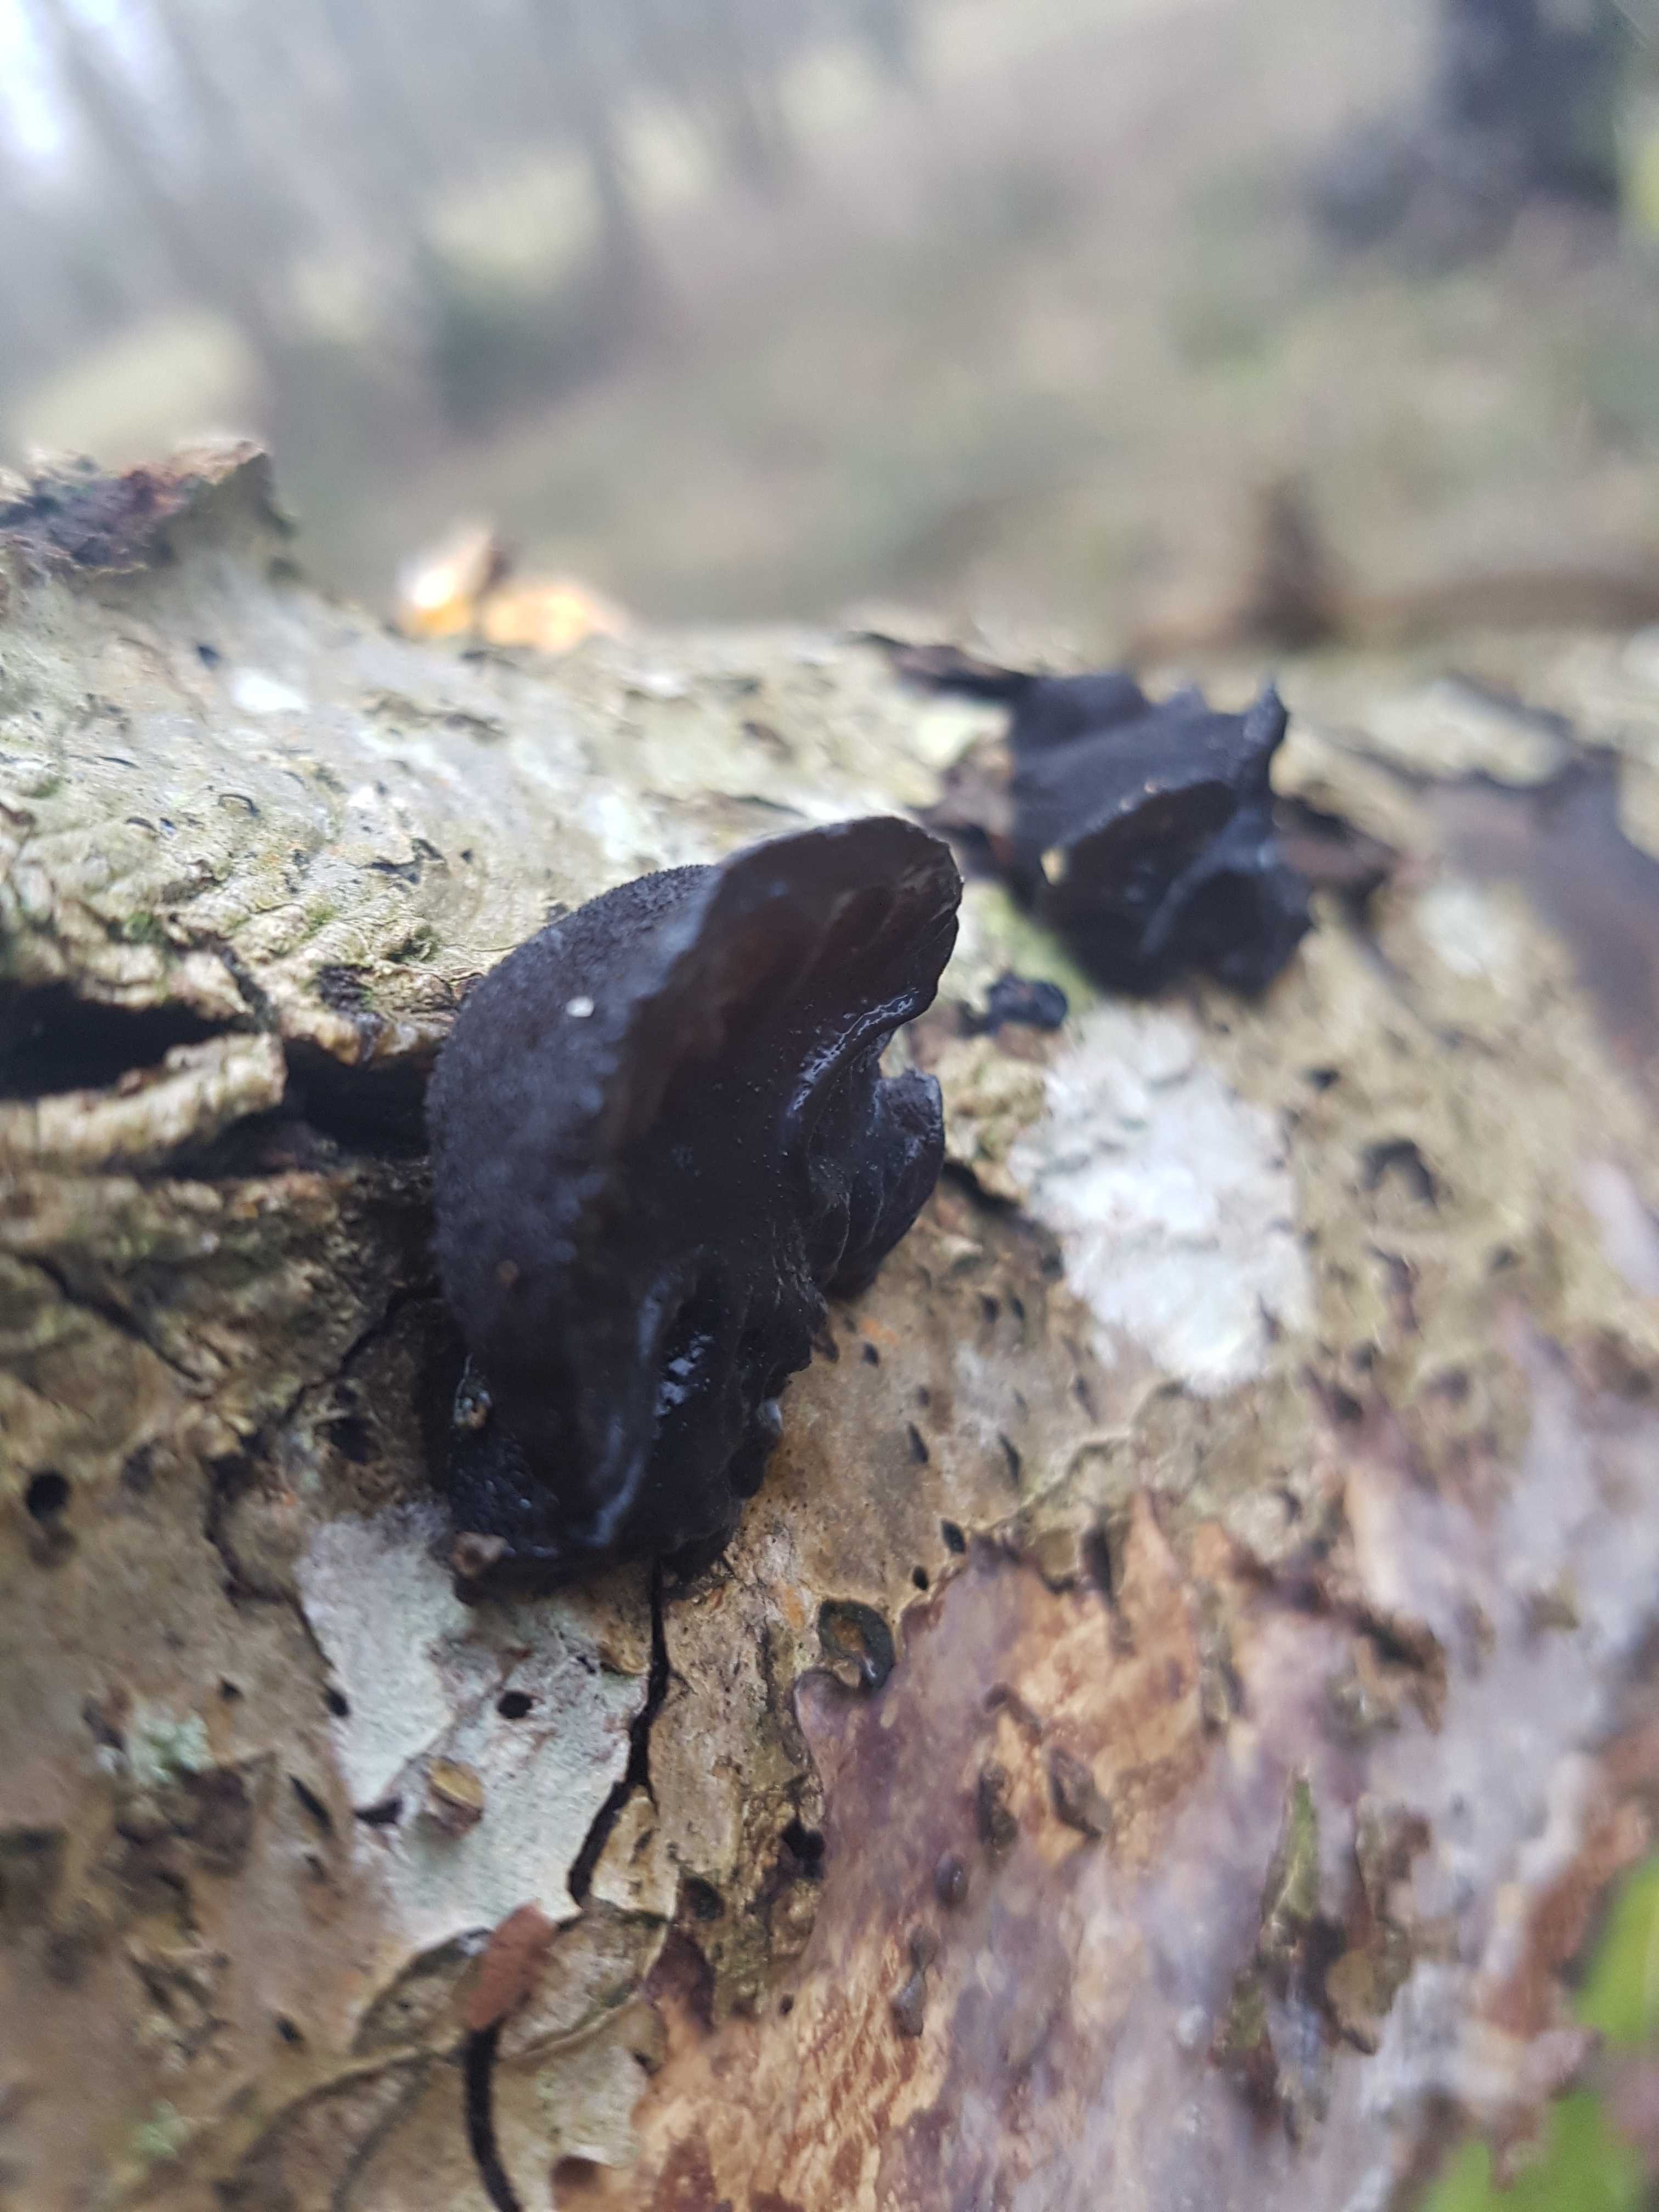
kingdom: Fungi
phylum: Basidiomycota
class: Agaricomycetes
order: Auriculariales
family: Auriculariaceae
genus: Exidia
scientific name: Exidia glandulosa
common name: ege-bævretop
